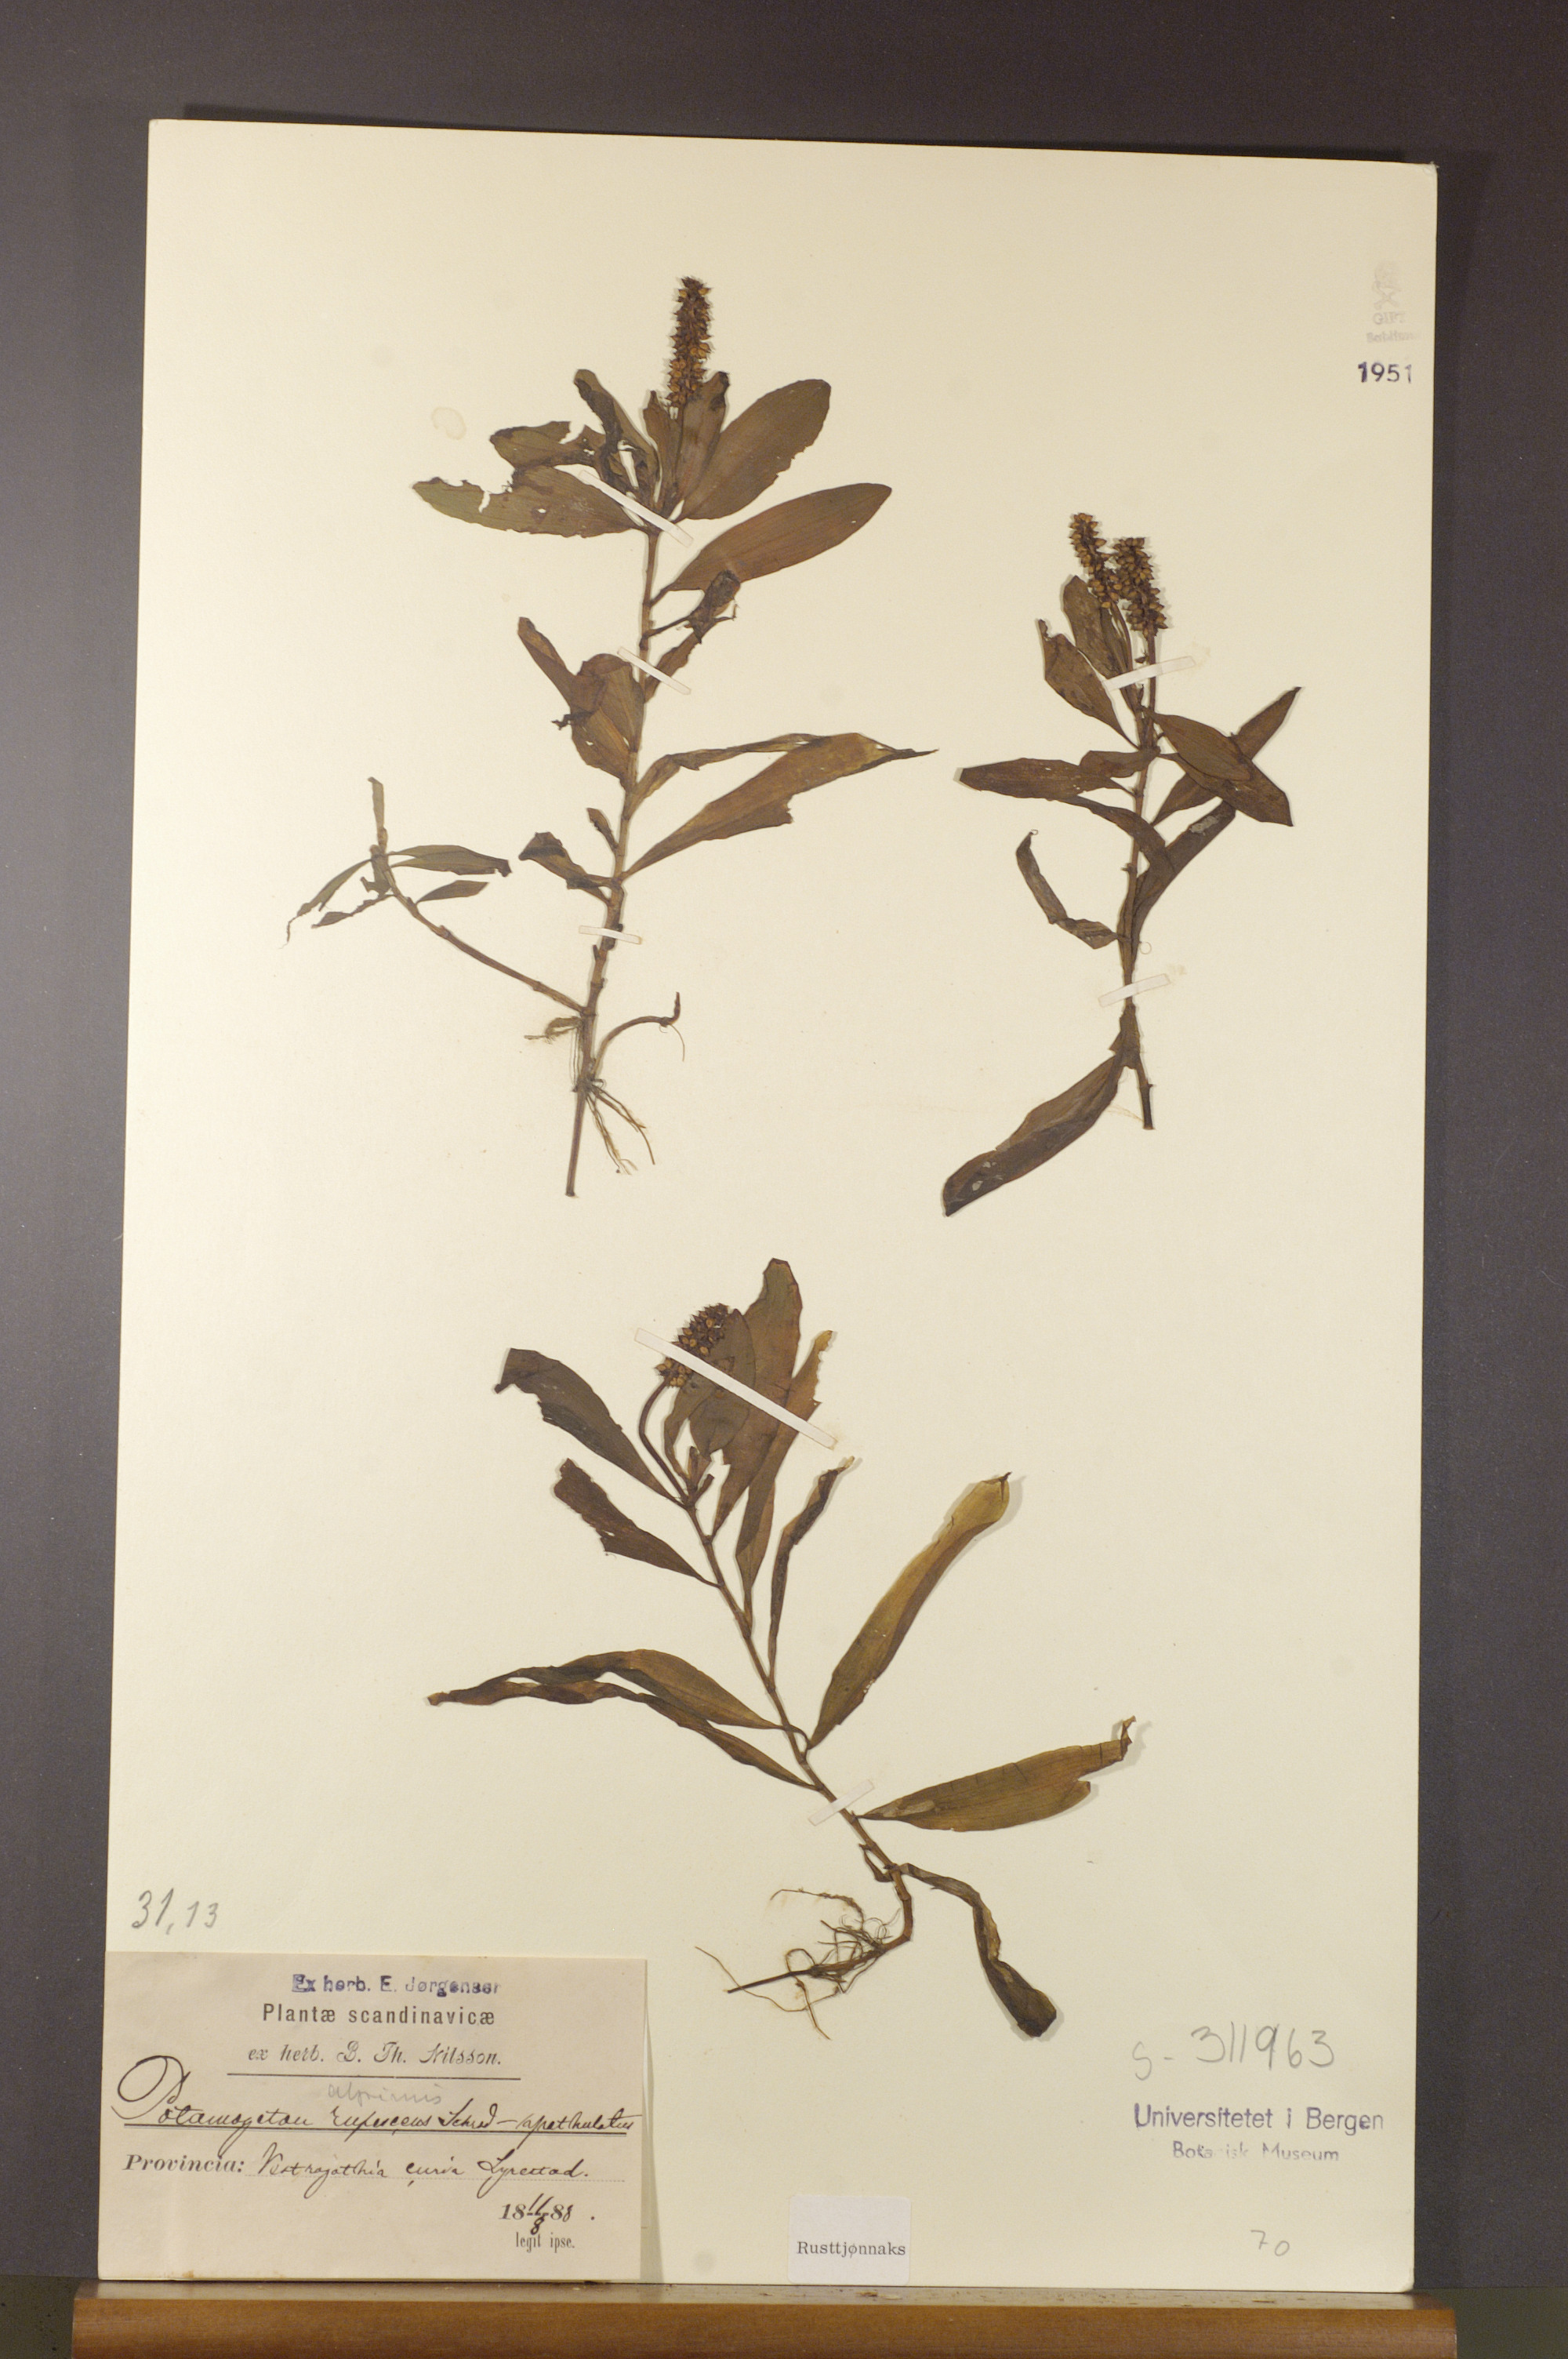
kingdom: Plantae
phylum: Tracheophyta
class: Liliopsida
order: Alismatales
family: Potamogetonaceae
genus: Potamogeton
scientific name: Potamogeton alpinus
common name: Red pondweed
